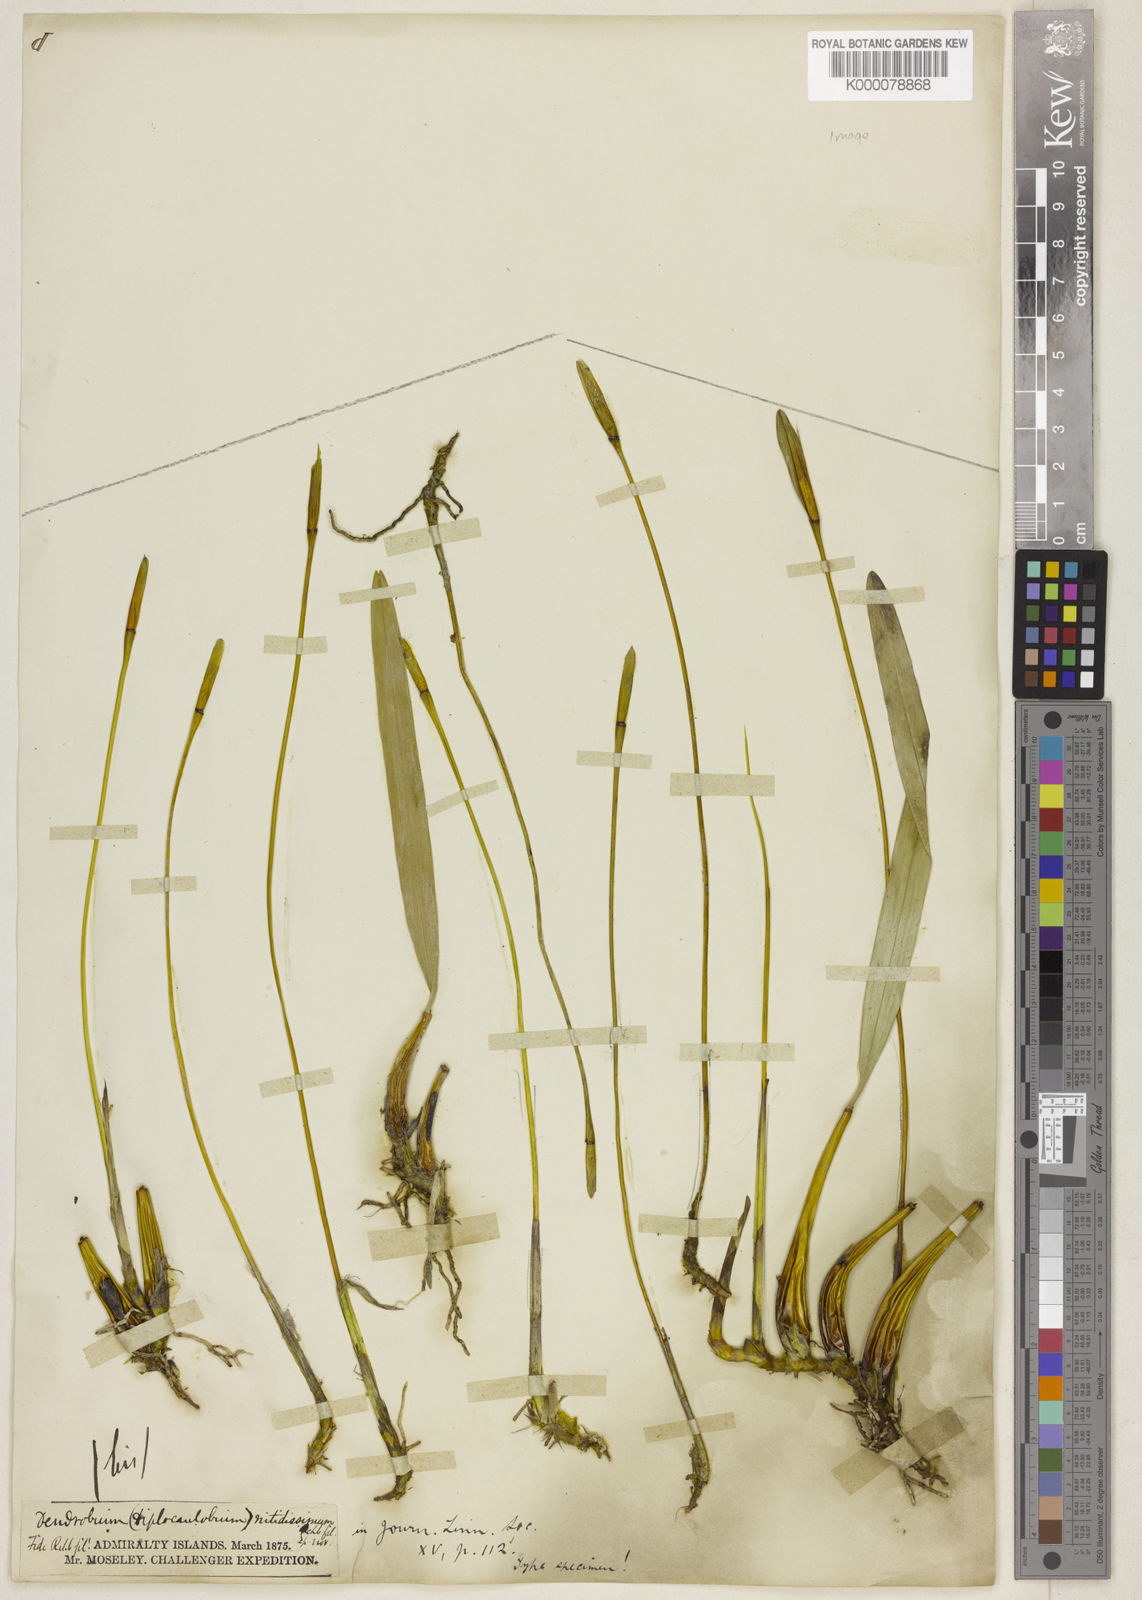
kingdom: Plantae
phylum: Tracheophyta
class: Liliopsida
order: Asparagales
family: Orchidaceae
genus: Dendrobium
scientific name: Dendrobium nitidissimum
